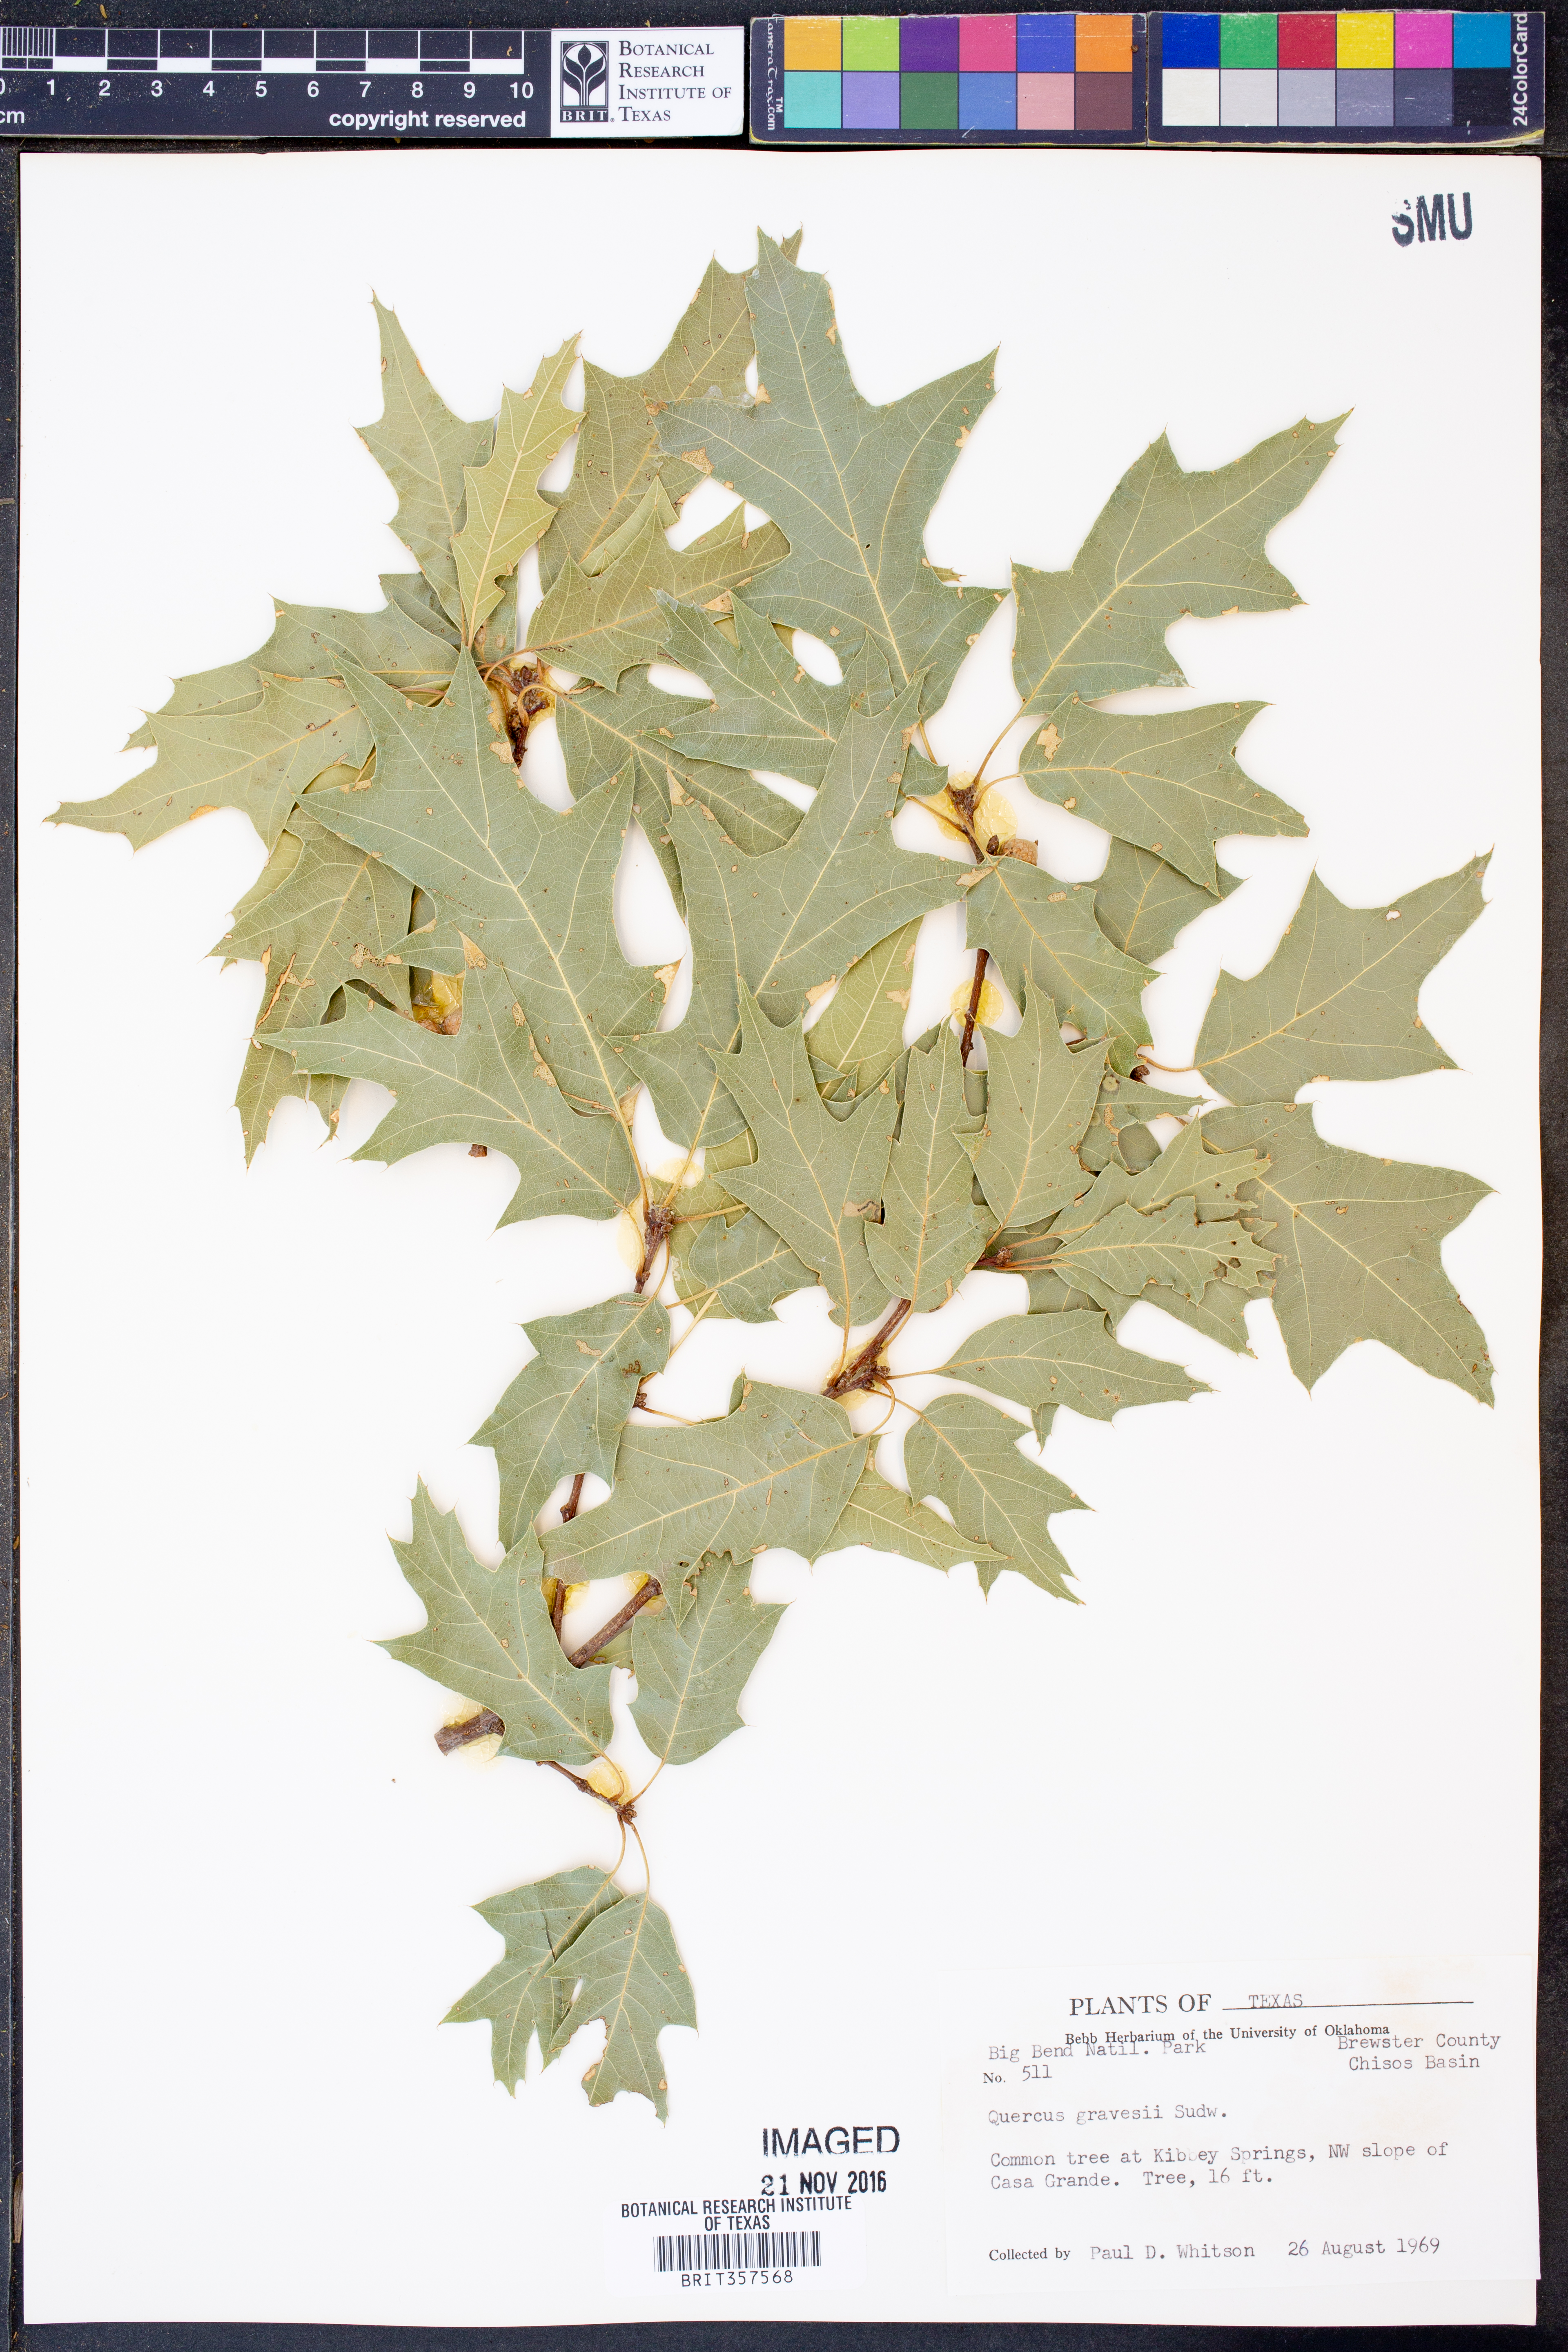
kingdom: Plantae
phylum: Tracheophyta
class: Magnoliopsida
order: Fagales
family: Fagaceae
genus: Quercus
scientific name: Quercus gravesii
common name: Chisos red oak
